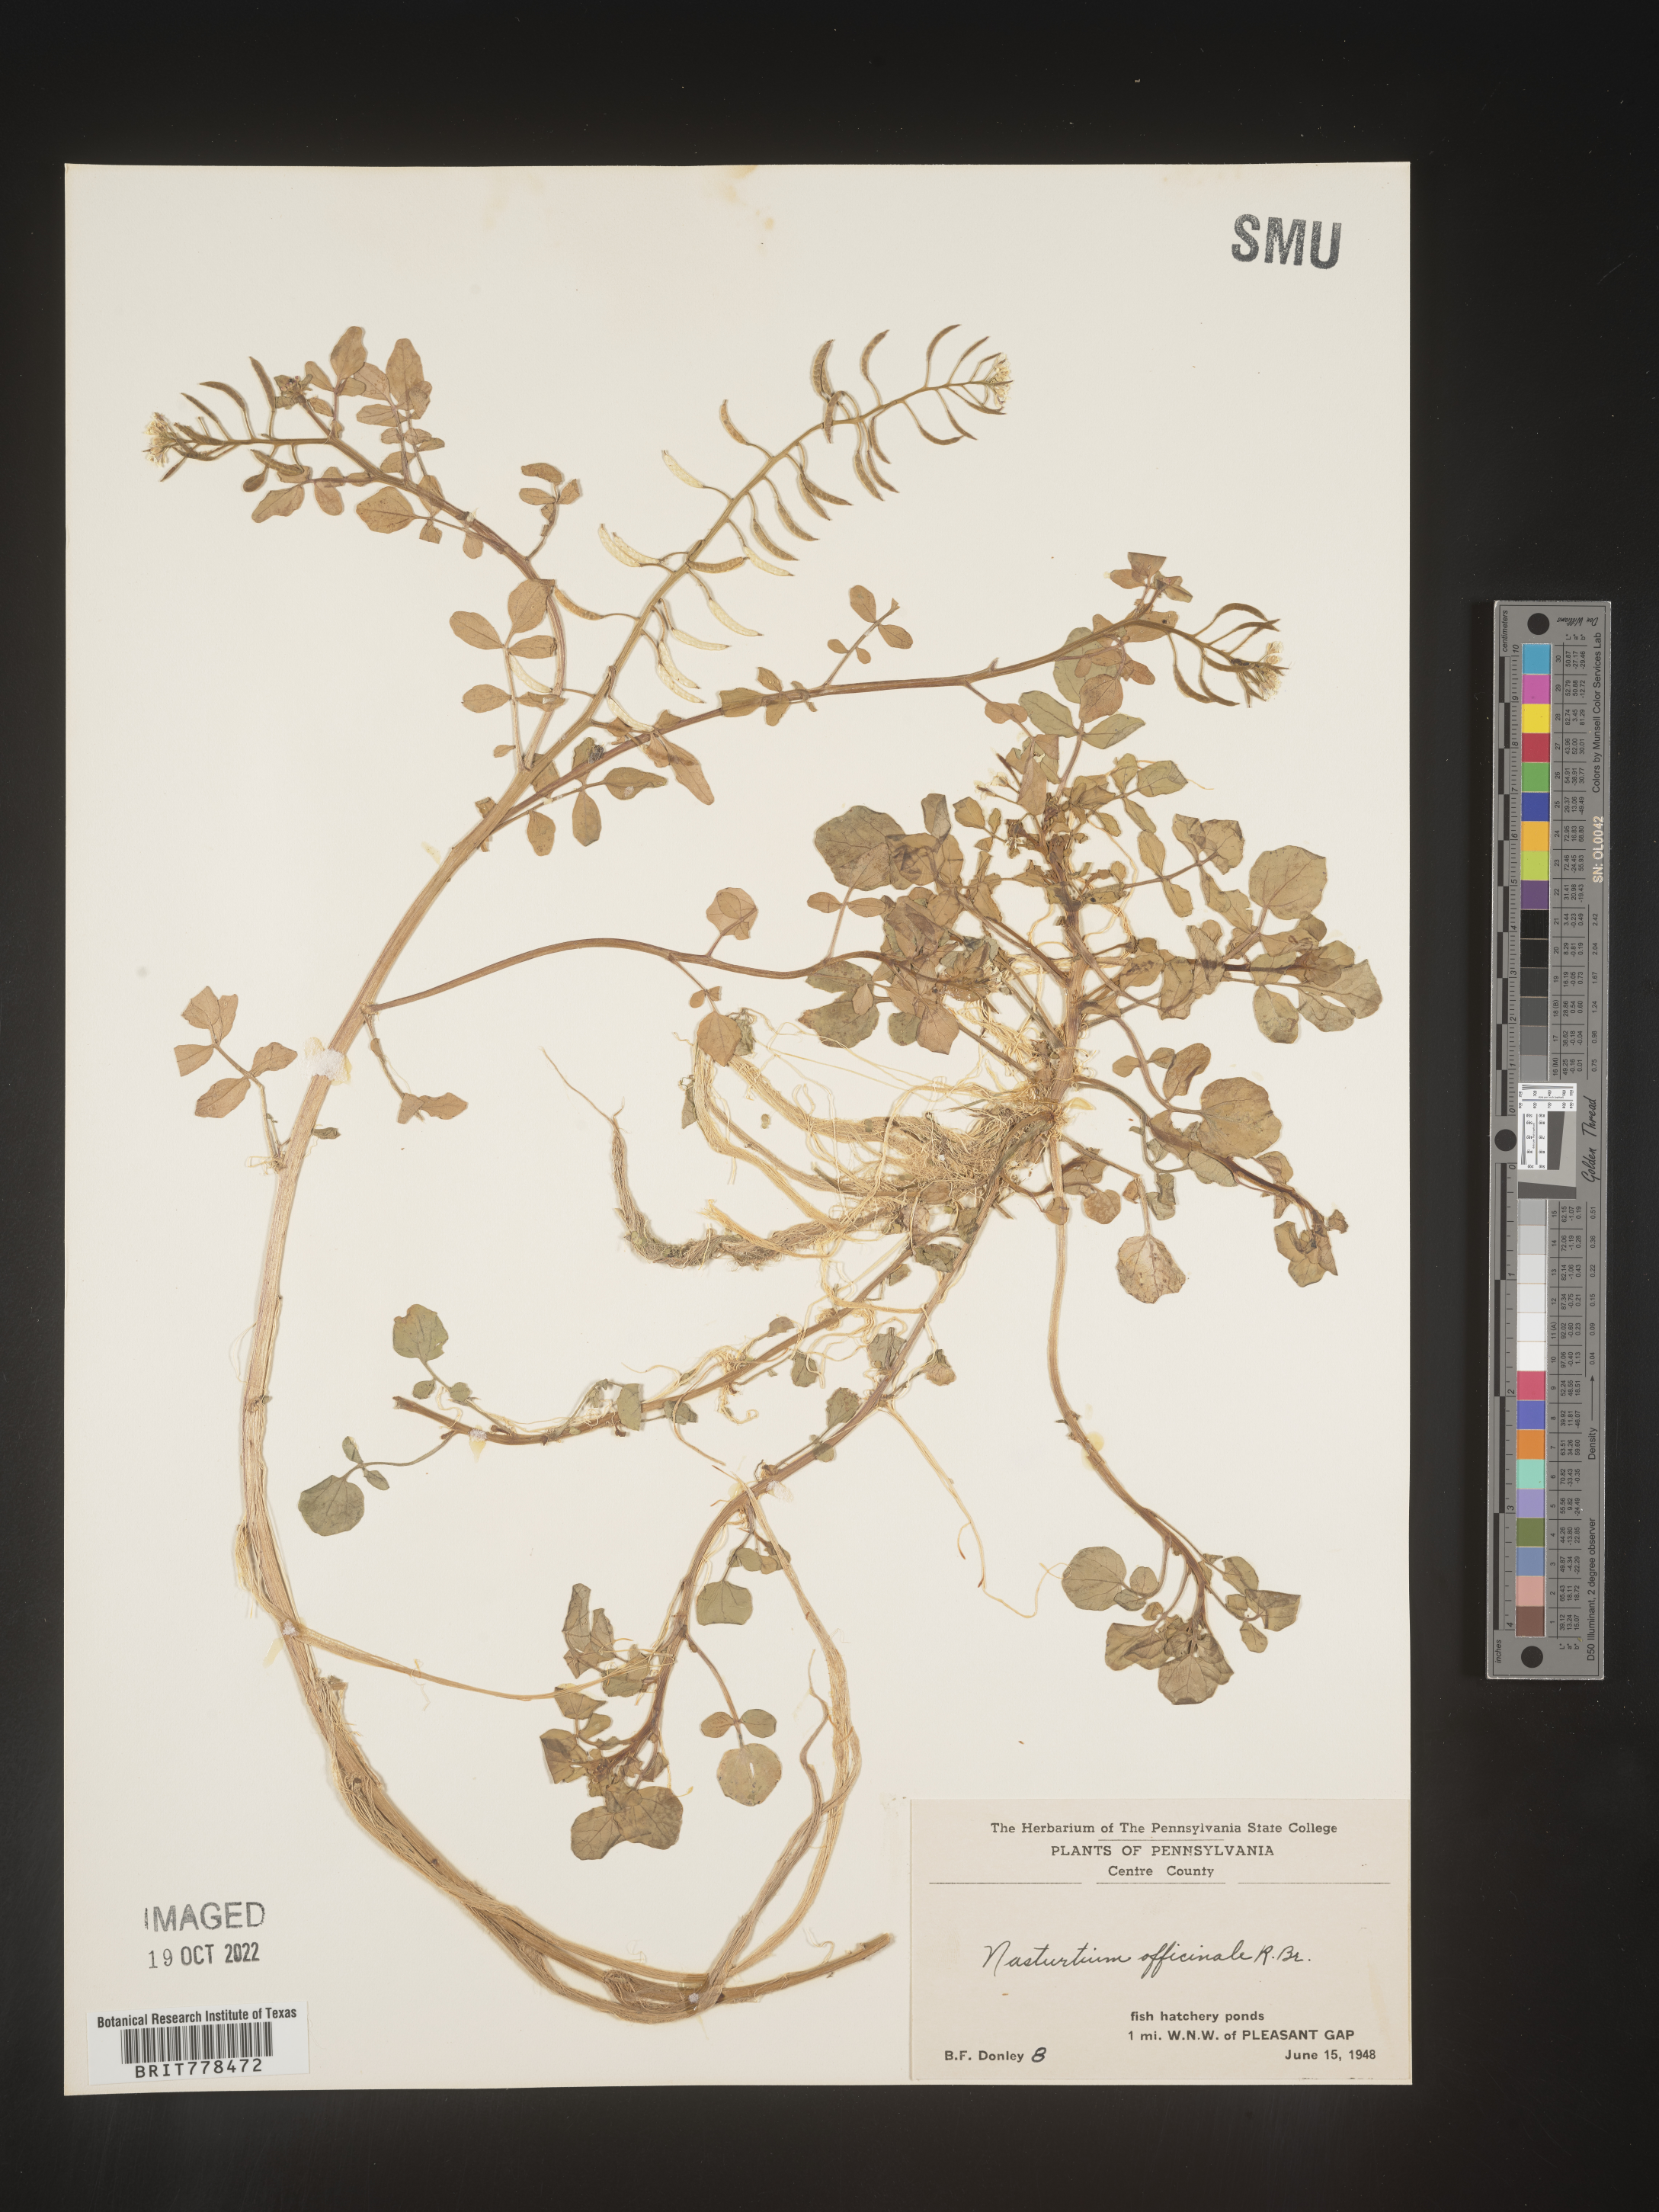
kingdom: Plantae
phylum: Tracheophyta
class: Magnoliopsida
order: Brassicales
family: Brassicaceae
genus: Nasturtium
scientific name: Nasturtium officinale
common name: Watercress
